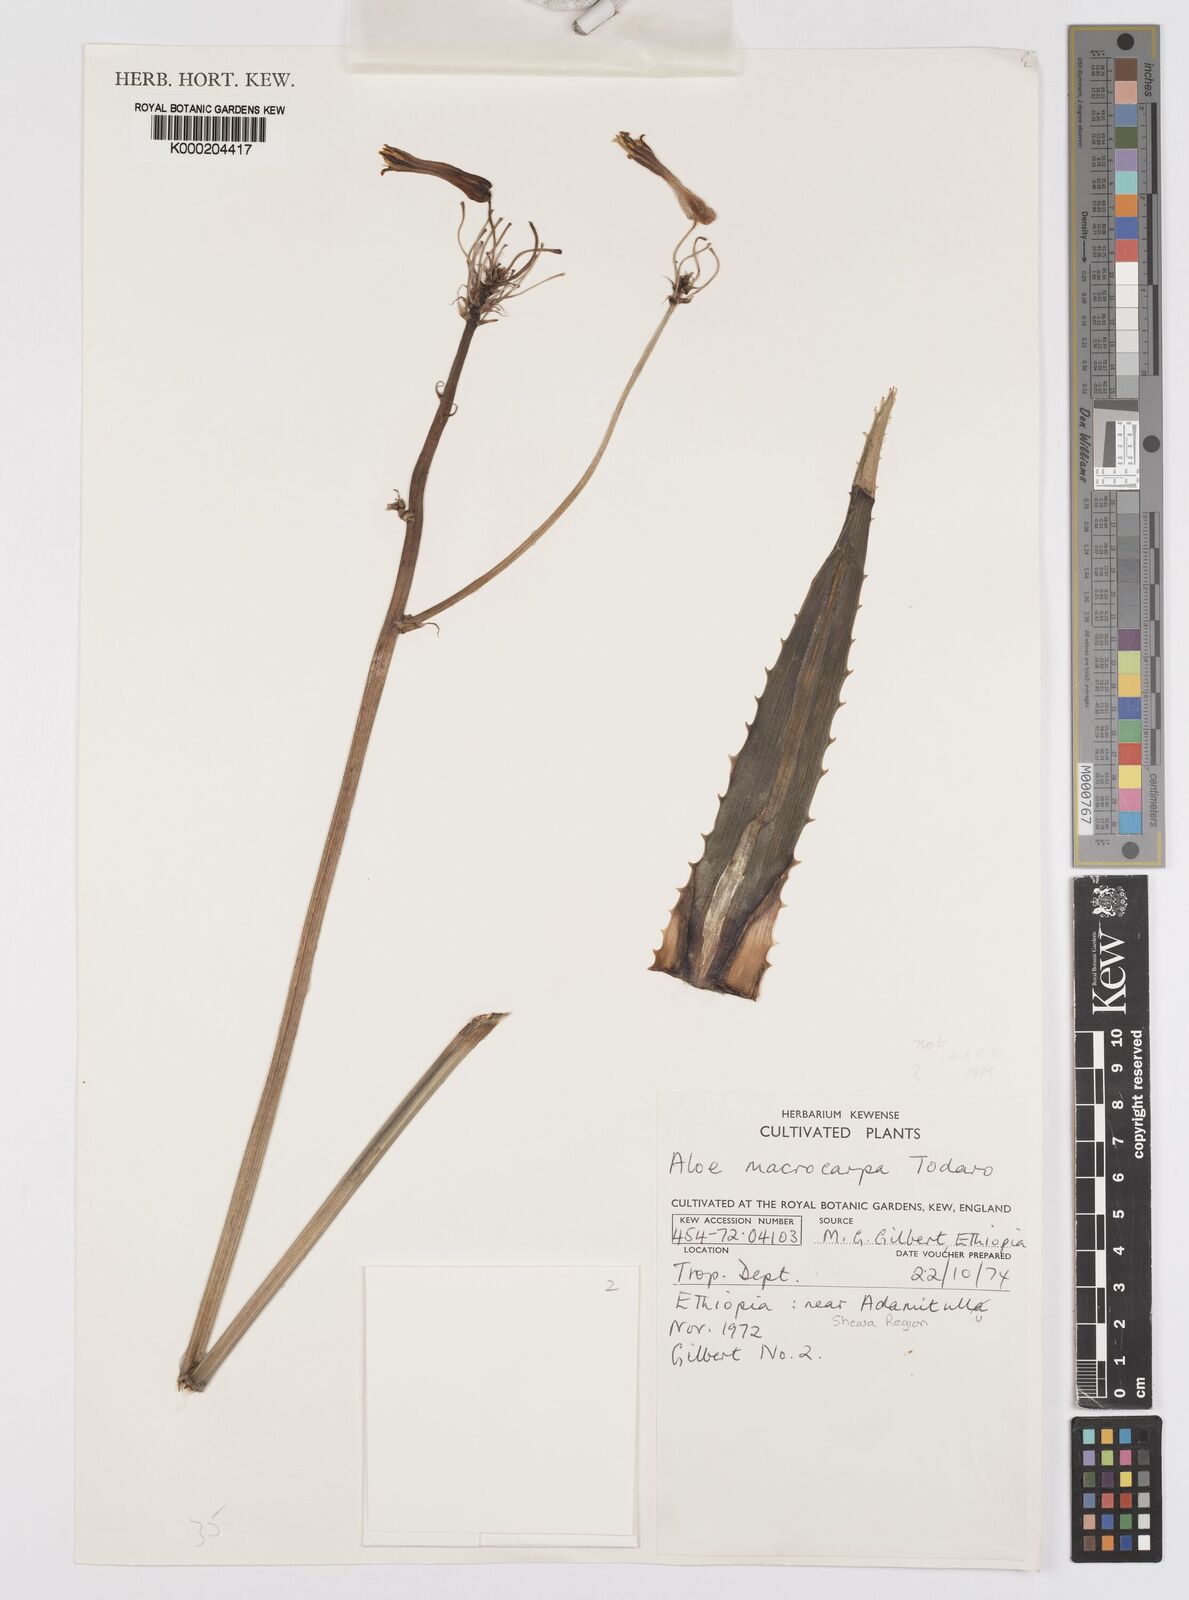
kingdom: Plantae
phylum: Tracheophyta
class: Liliopsida
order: Asparagales
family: Asphodelaceae
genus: Aloe
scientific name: Aloe macrocarpa
